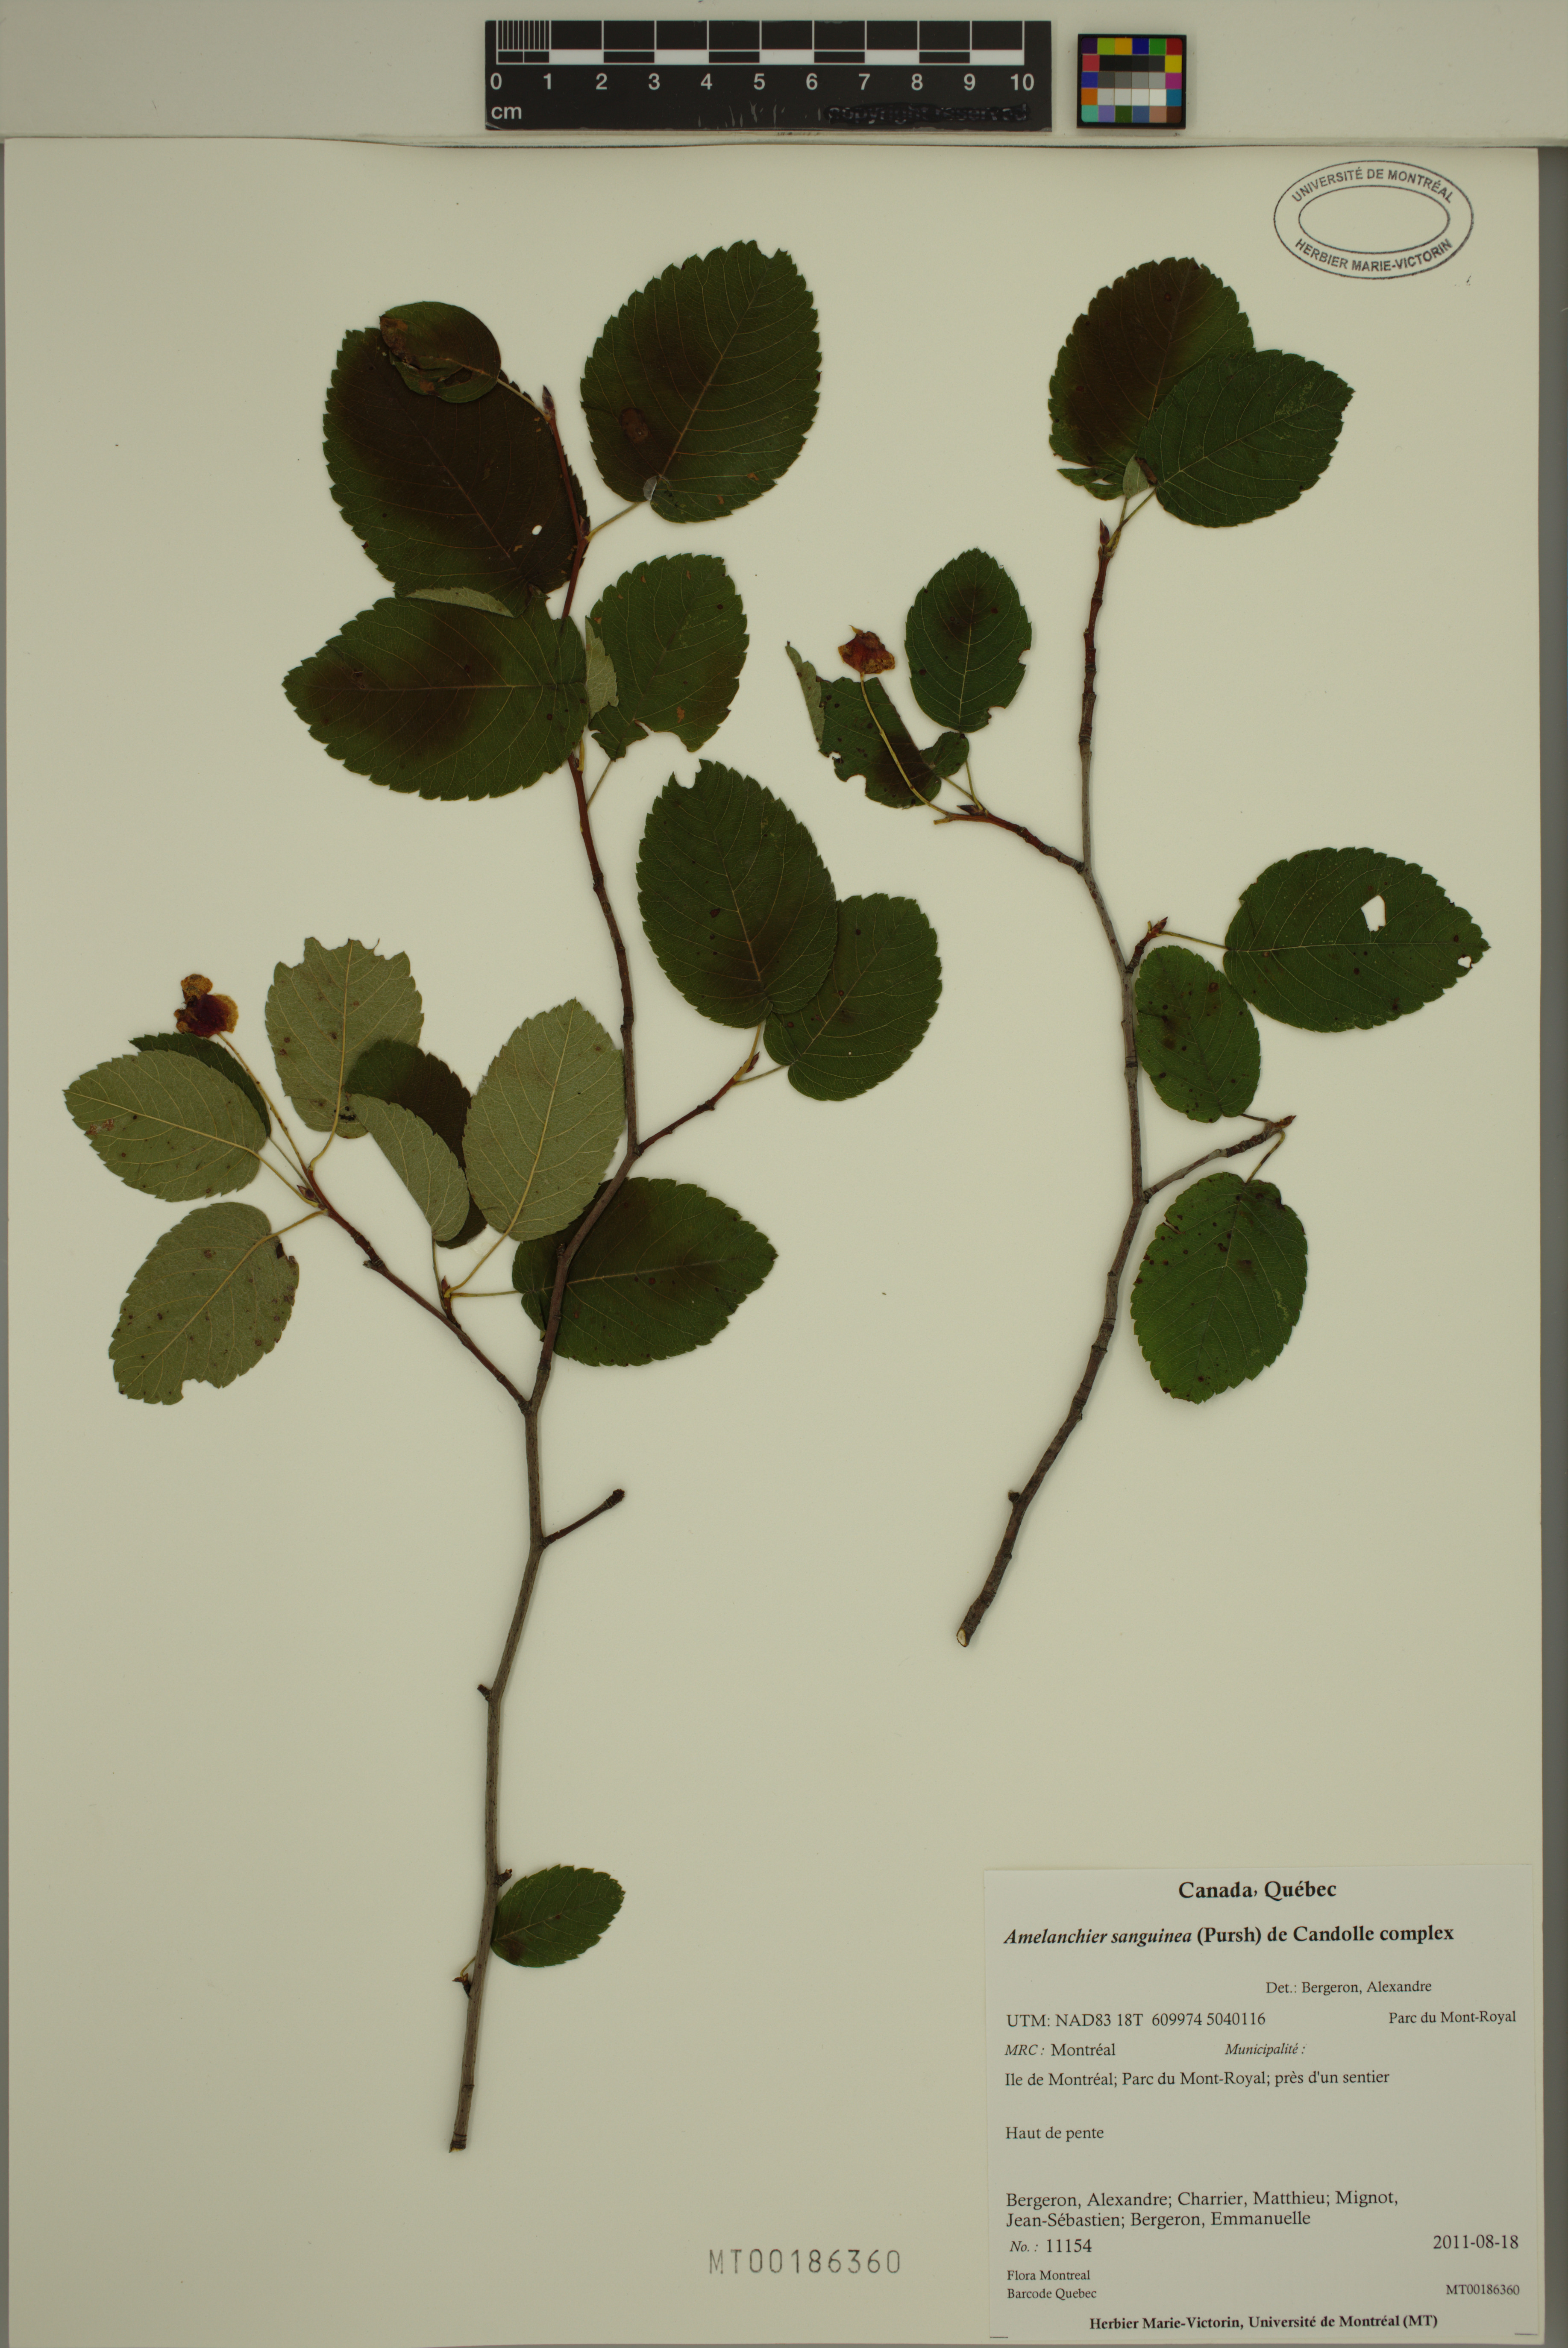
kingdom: Plantae
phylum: Tracheophyta
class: Magnoliopsida
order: Rosales
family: Rosaceae
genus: Amelanchier
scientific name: Amelanchier sanguinea
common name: Huron serviceberry
